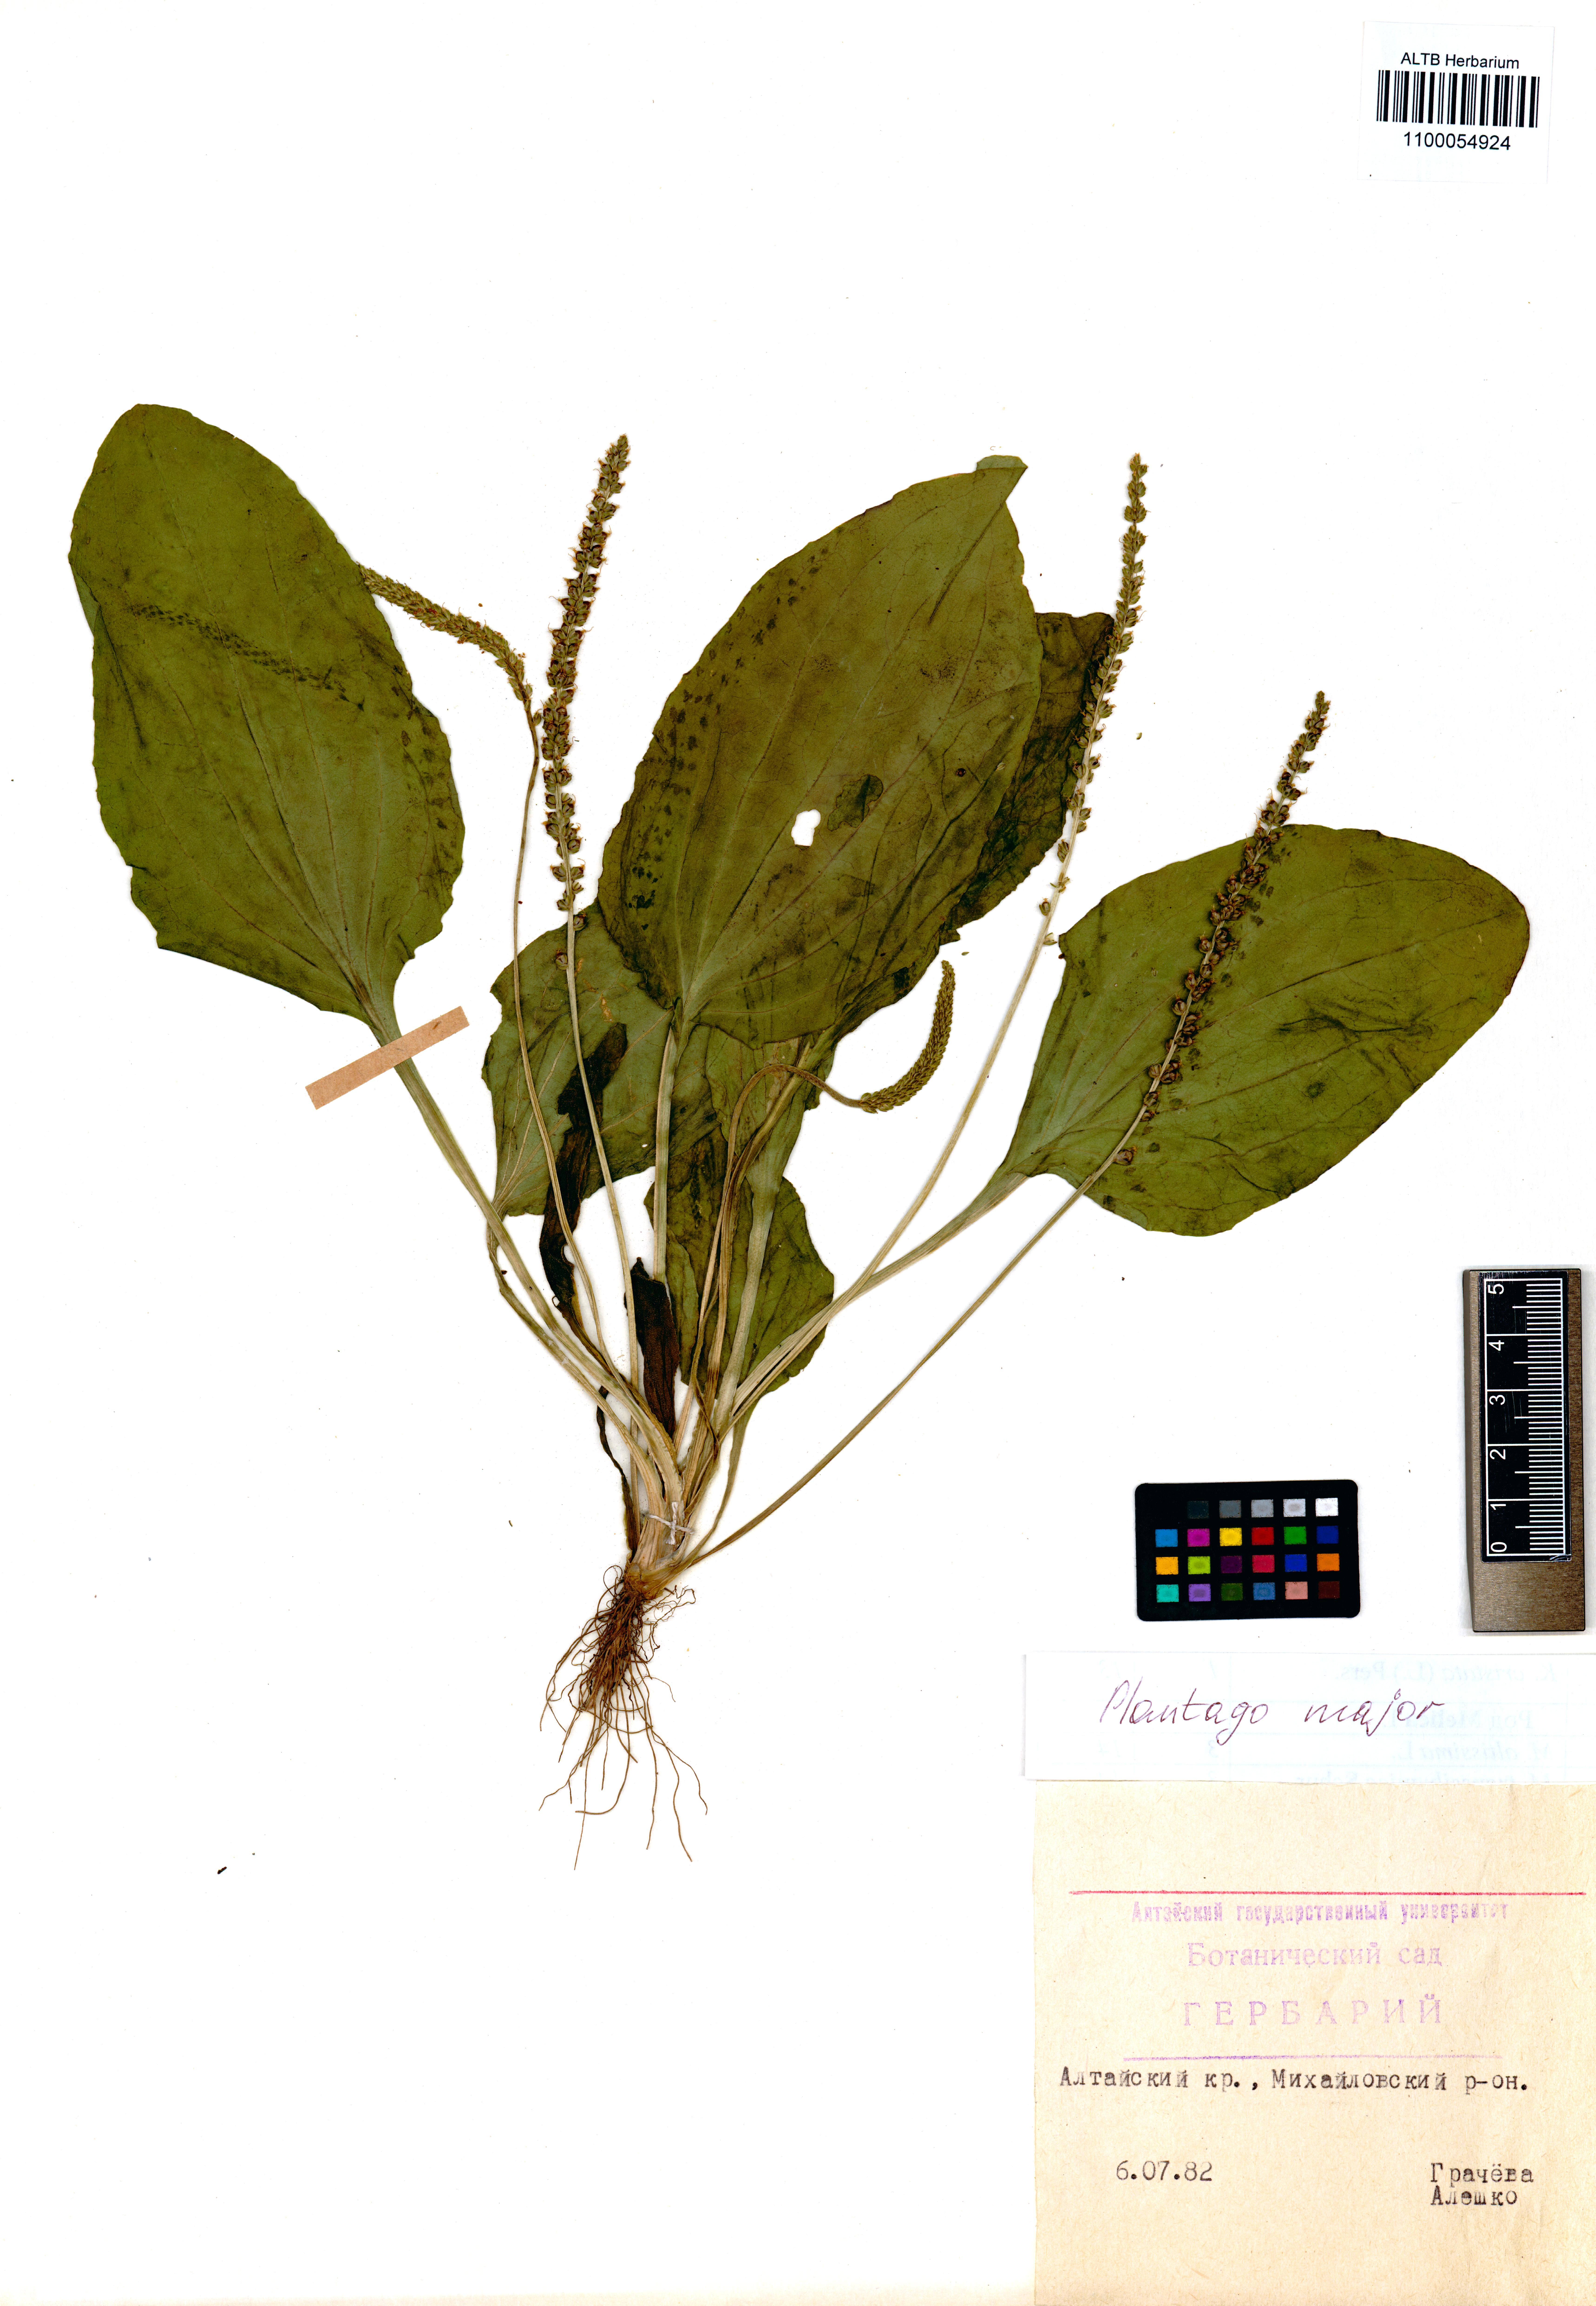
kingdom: Plantae
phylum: Tracheophyta
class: Magnoliopsida
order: Lamiales
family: Plantaginaceae
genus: Plantago
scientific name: Plantago major
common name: Common plantain
